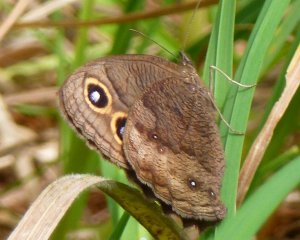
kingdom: Animalia
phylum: Arthropoda
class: Insecta
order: Lepidoptera
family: Nymphalidae
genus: Cercyonis
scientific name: Cercyonis pegala
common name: Common Wood-Nymph
